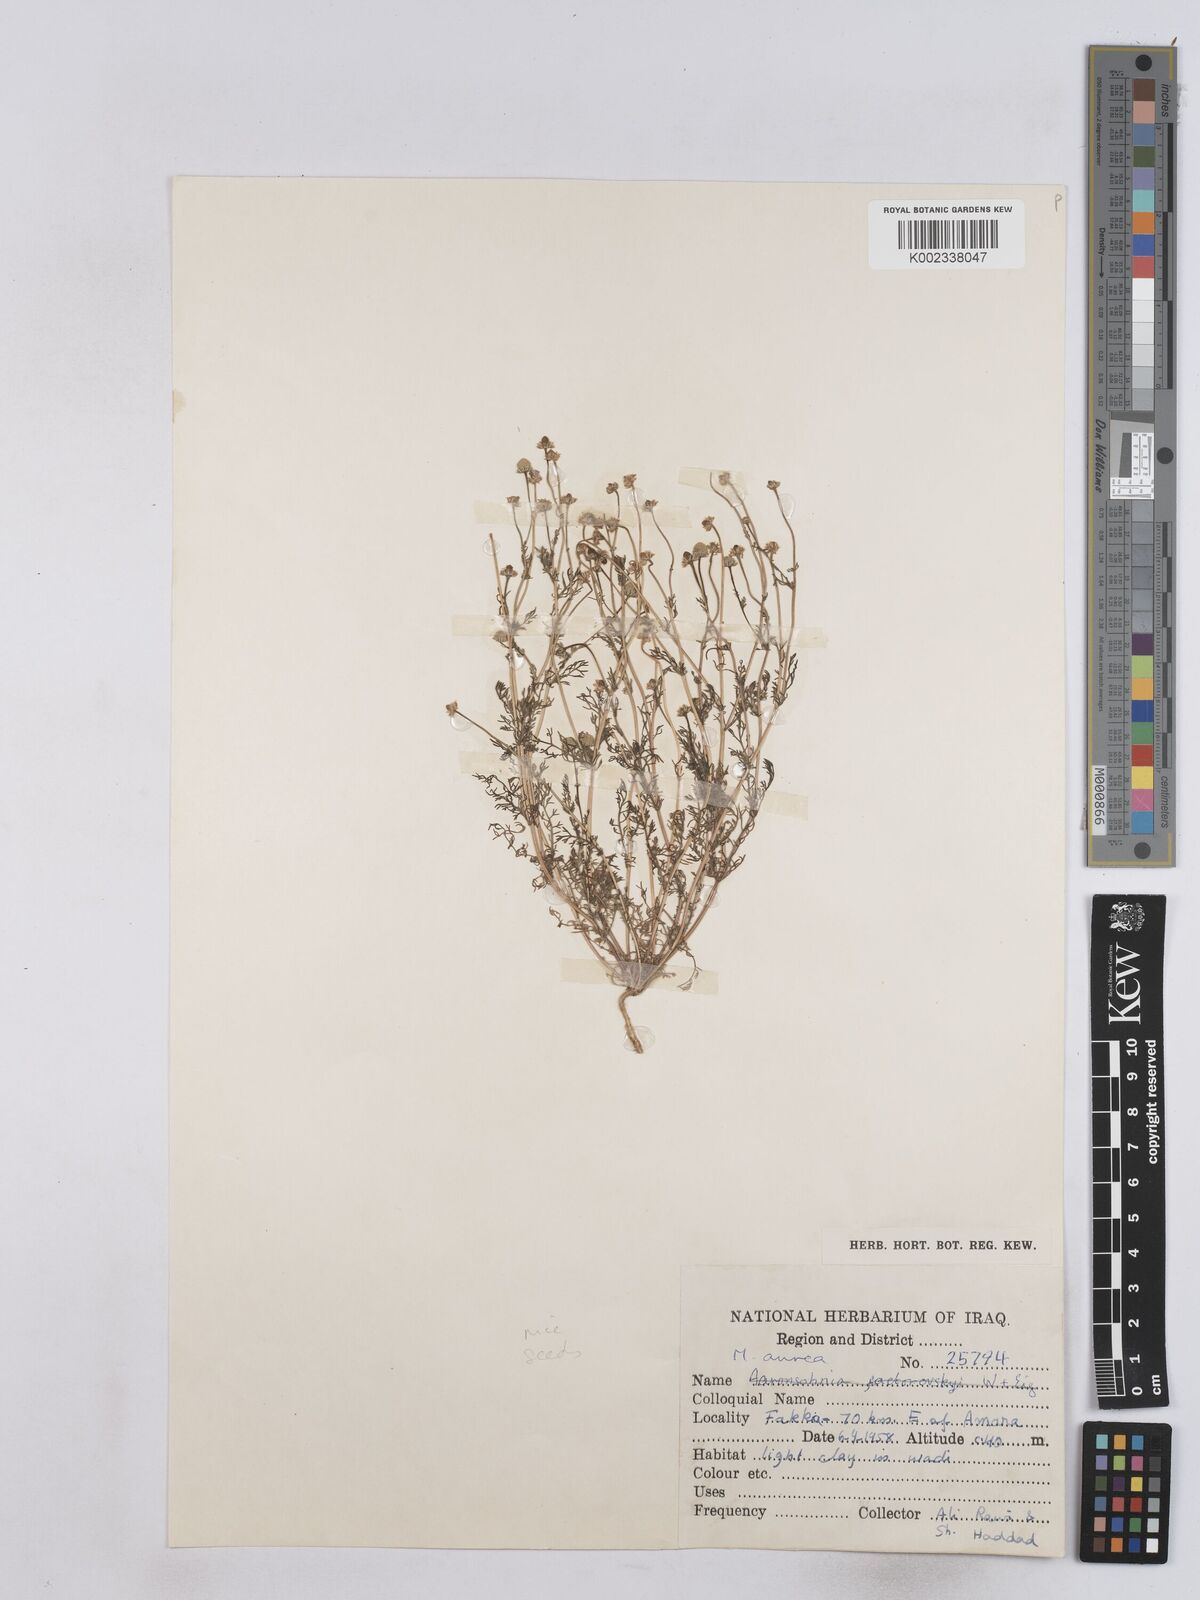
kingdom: Plantae
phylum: Tracheophyta
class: Magnoliopsida
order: Asterales
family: Asteraceae
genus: Matricaria
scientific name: Matricaria aurea
